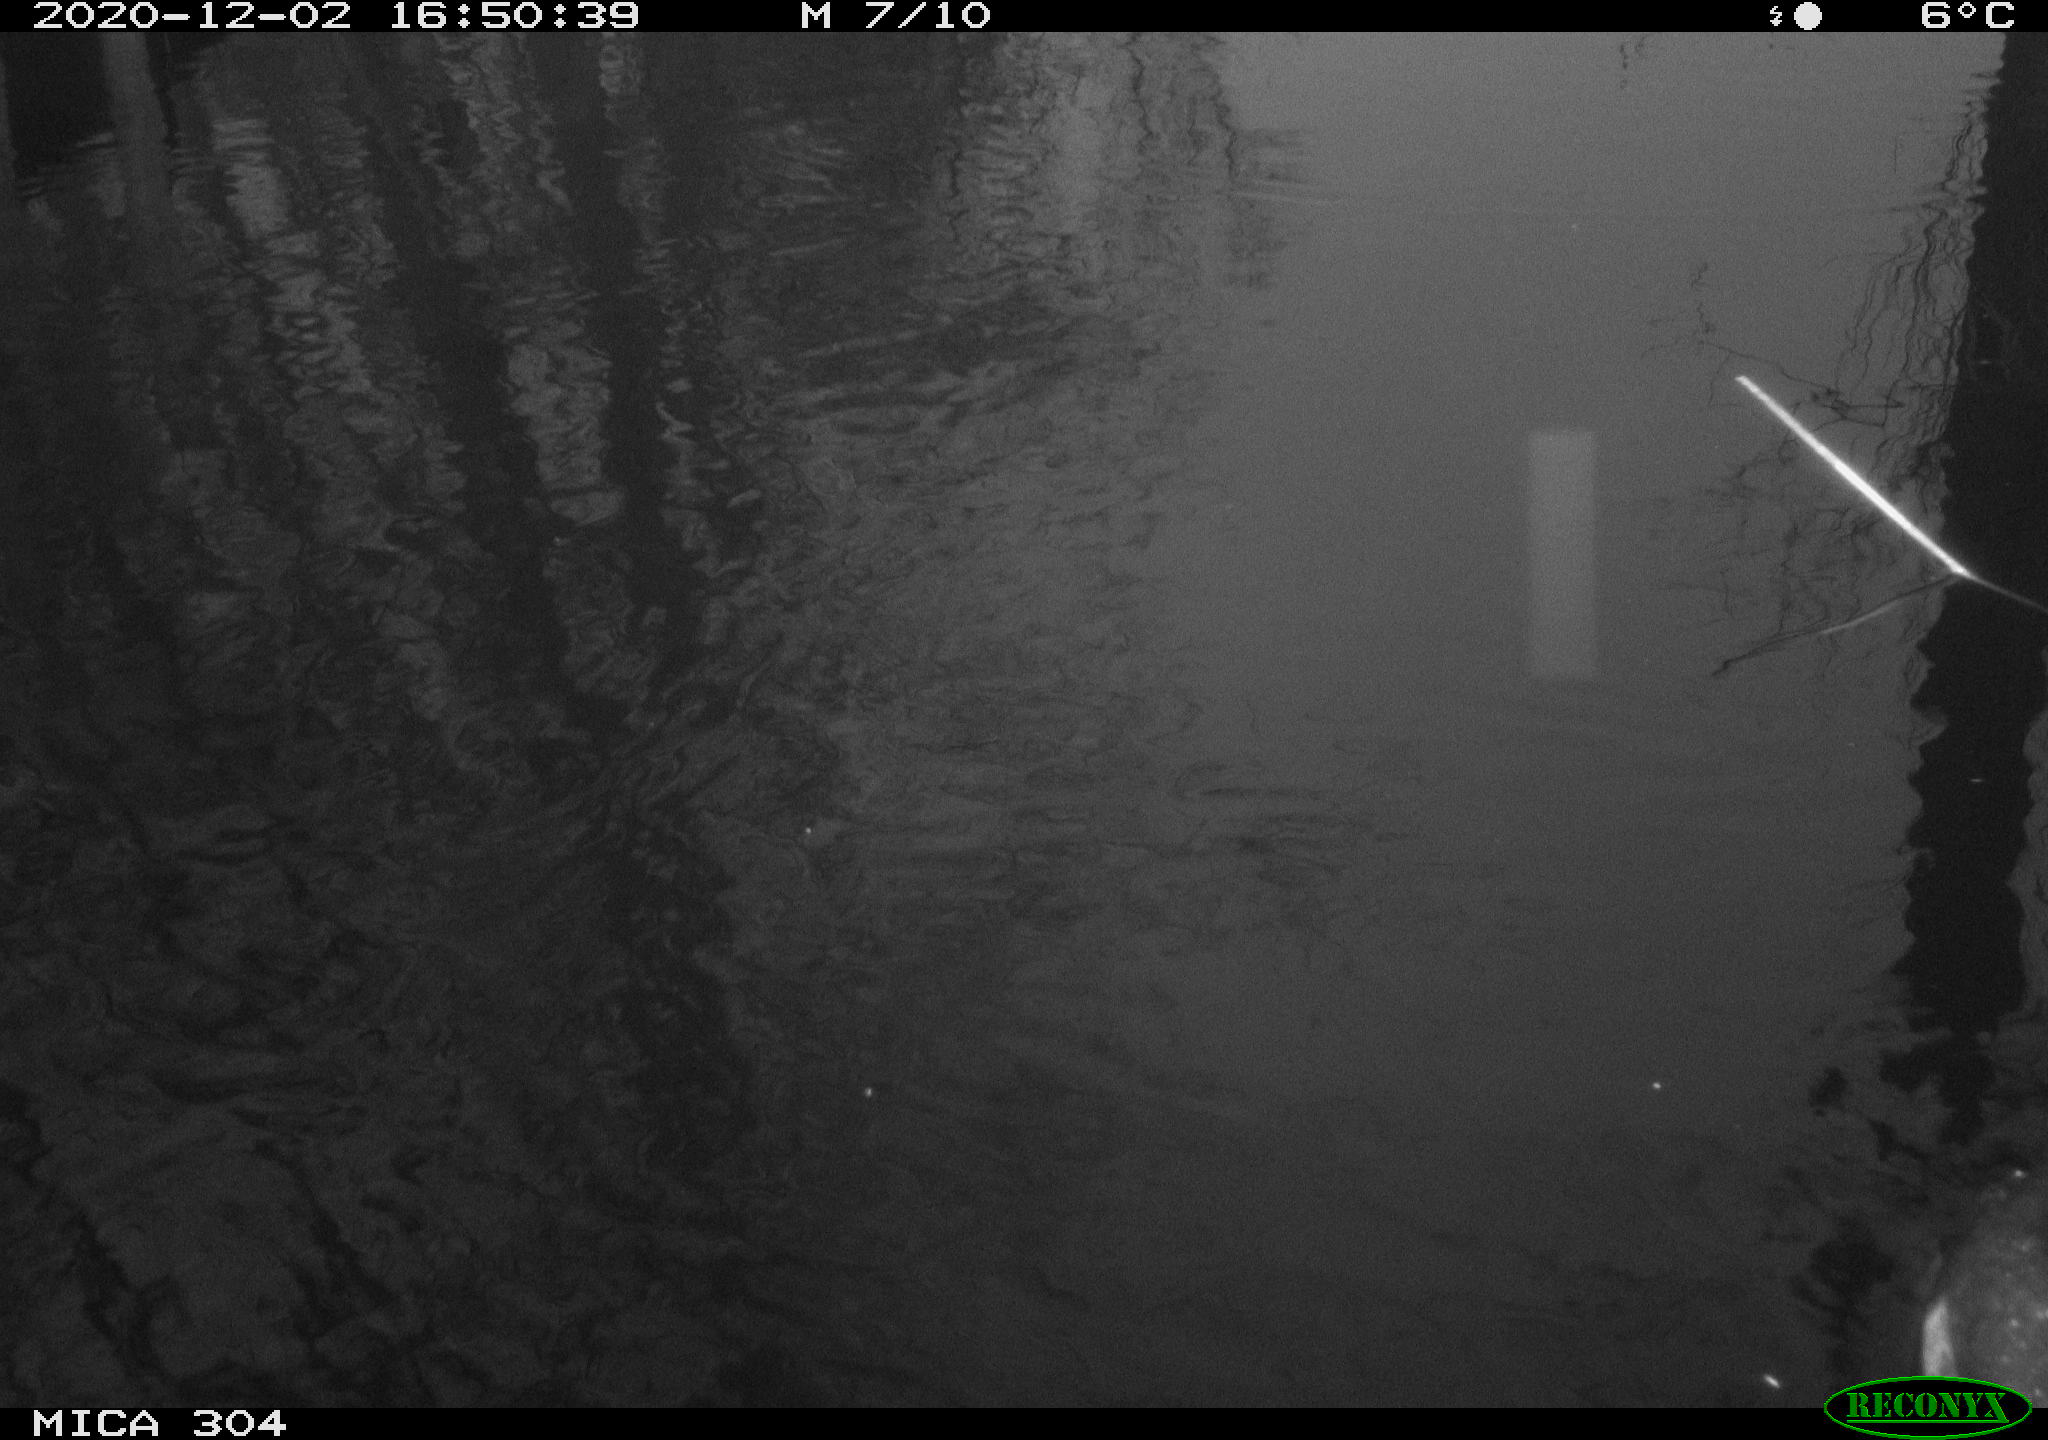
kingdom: Animalia
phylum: Chordata
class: Aves
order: Gruiformes
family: Rallidae
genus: Fulica
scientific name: Fulica atra
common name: Eurasian coot
